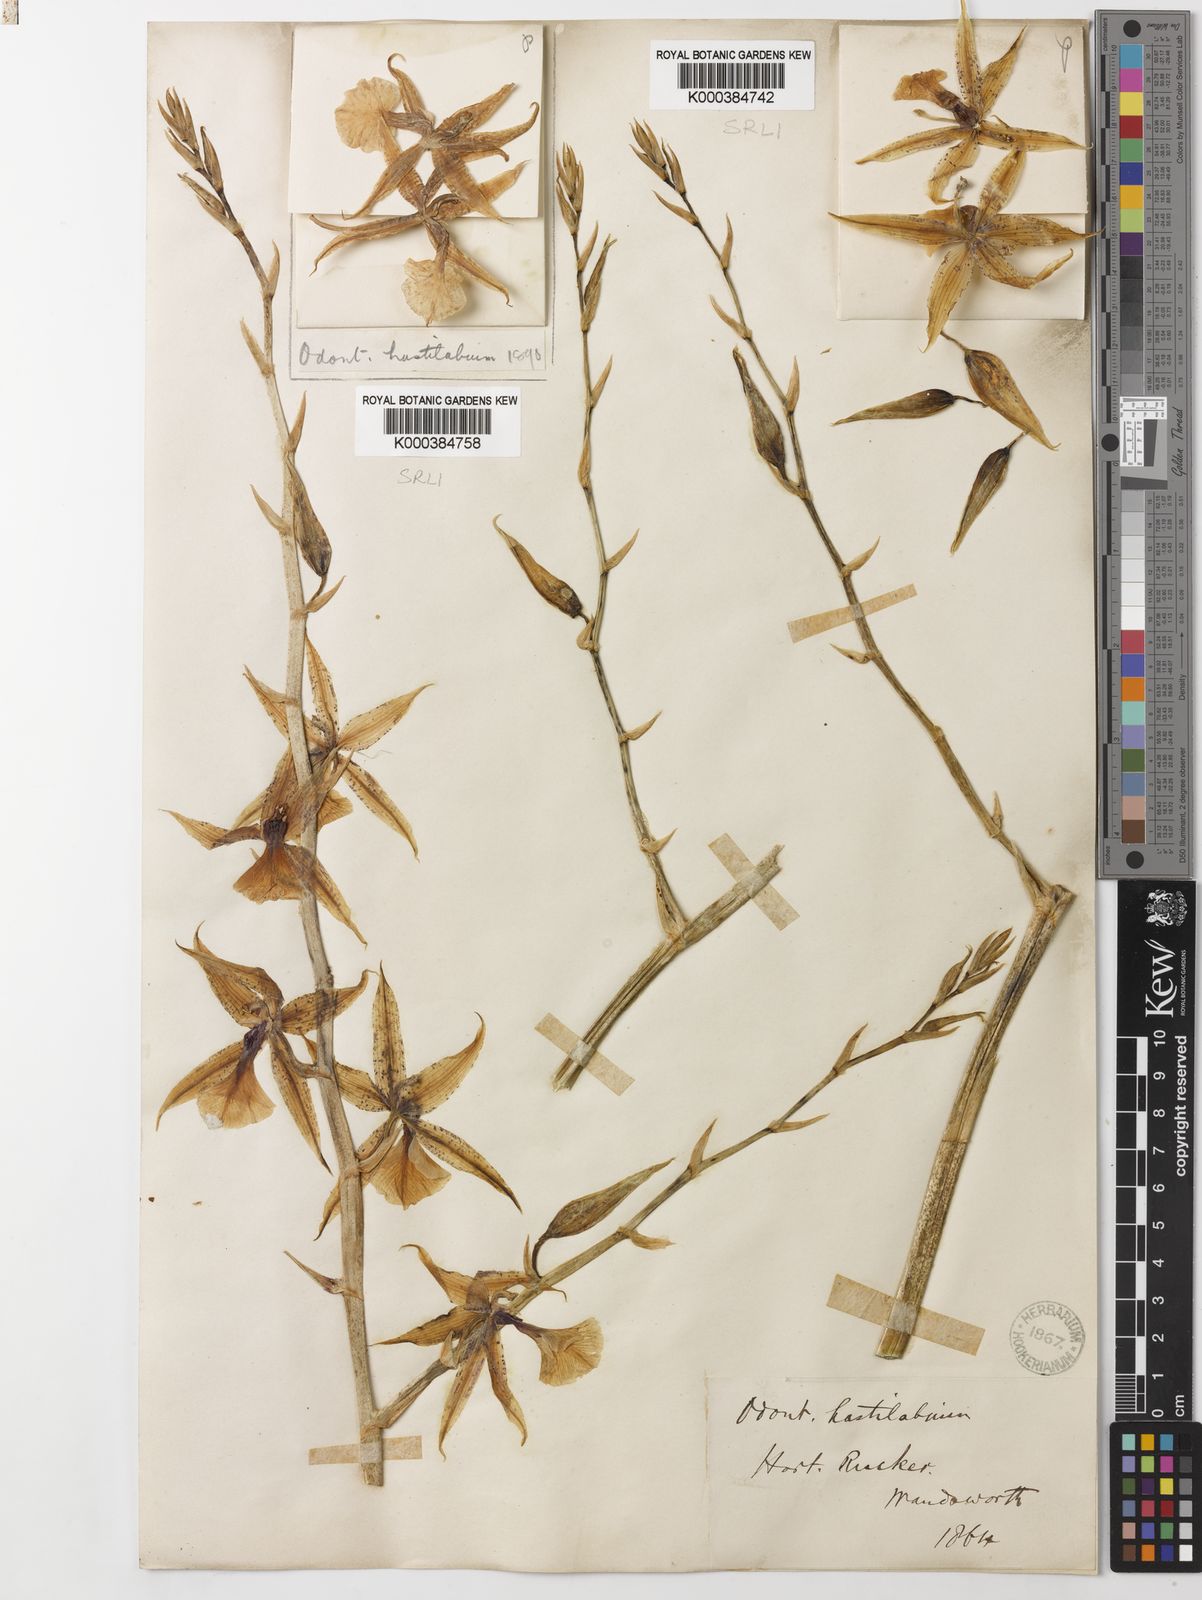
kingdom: Plantae
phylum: Tracheophyta
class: Liliopsida
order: Asparagales
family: Orchidaceae
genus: Oncidium
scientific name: Oncidium
